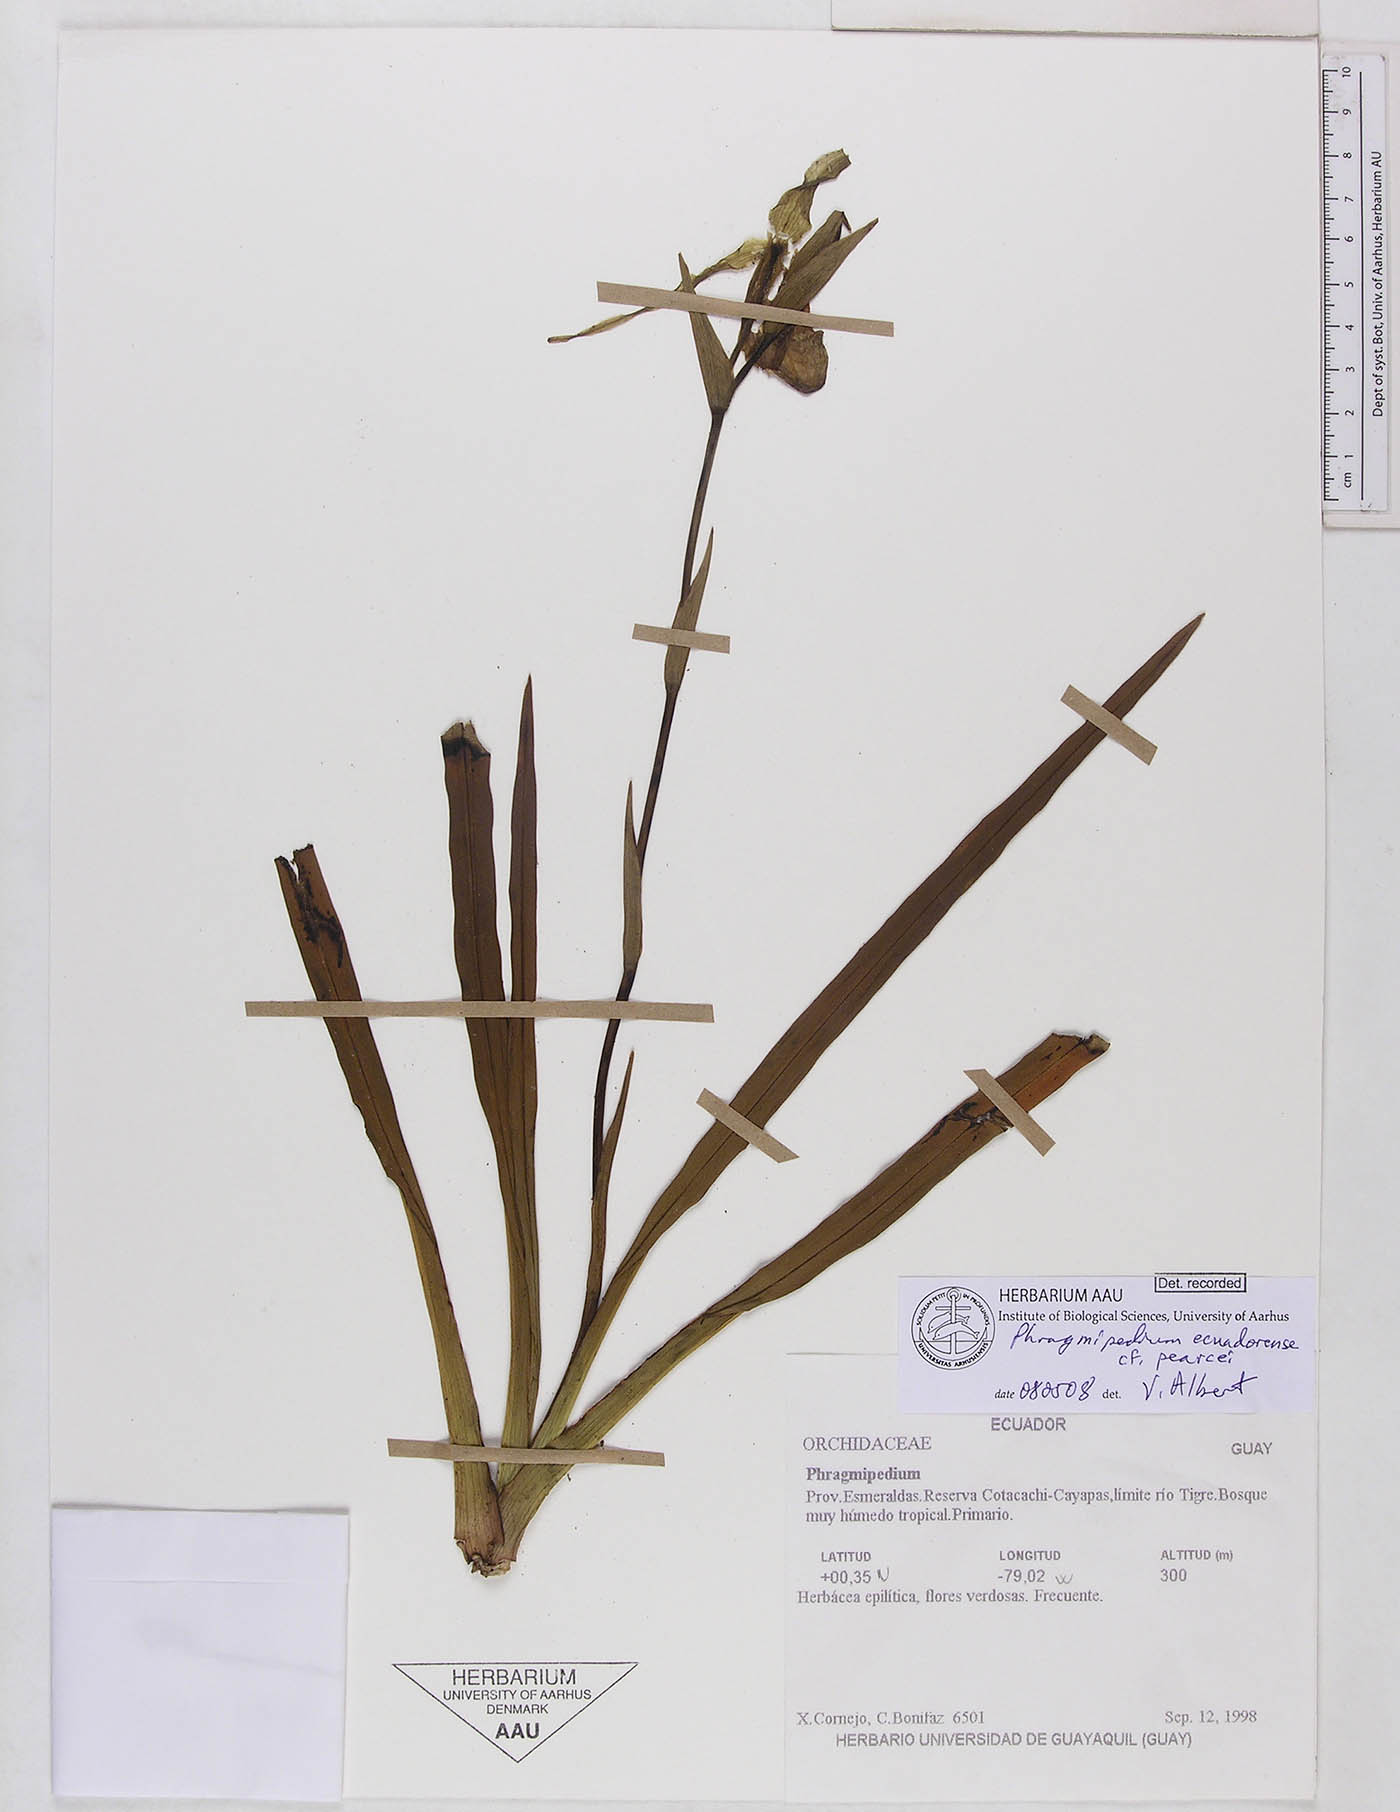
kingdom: Plantae
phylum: Tracheophyta
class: Liliopsida
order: Asparagales
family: Orchidaceae
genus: Phragmipedium
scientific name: Phragmipedium pearcei
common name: Pearce's phragmipedium
